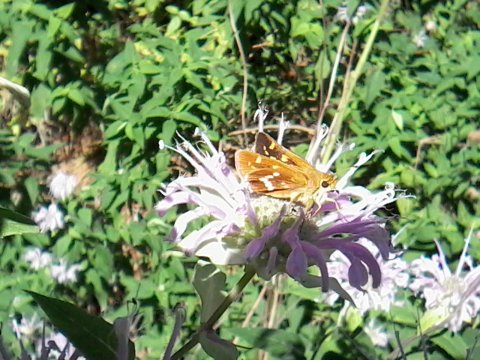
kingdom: Animalia
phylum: Arthropoda
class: Insecta
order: Lepidoptera
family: Hesperiidae
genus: Hesperia
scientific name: Hesperia leonardus
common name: Leonard's Skipper
